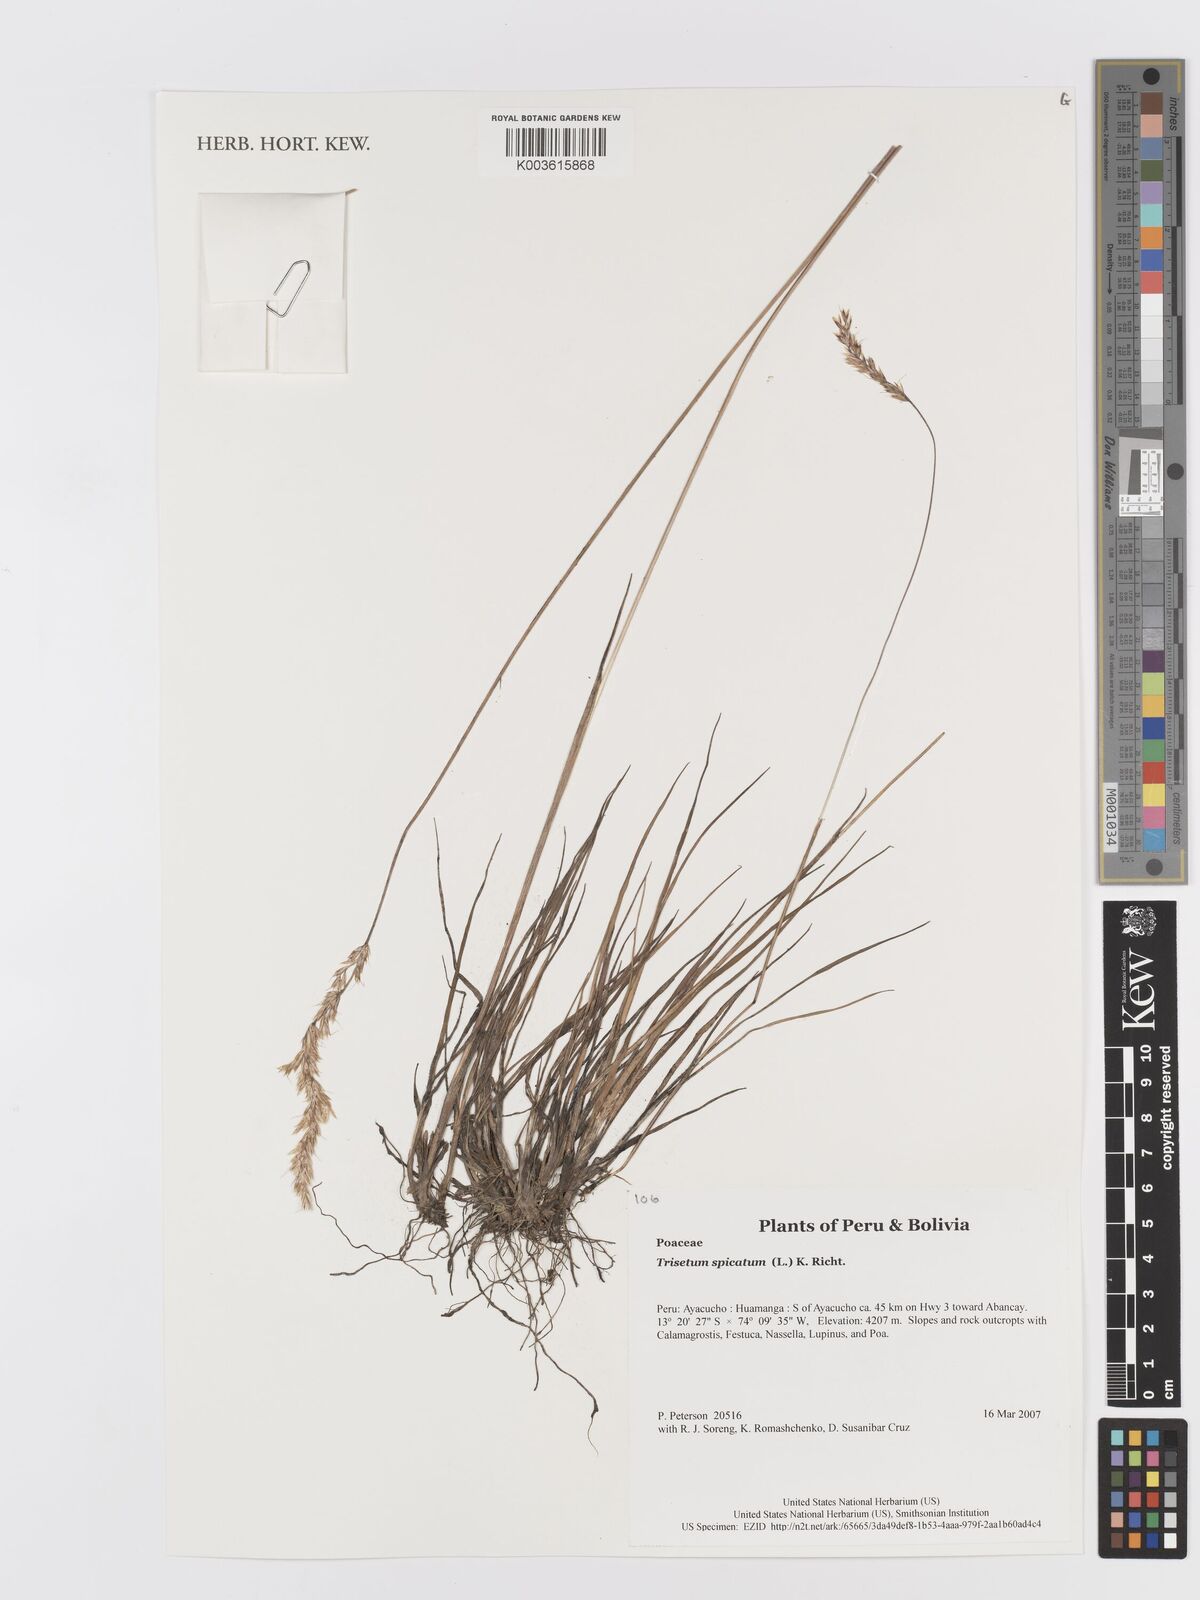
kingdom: Plantae
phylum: Tracheophyta
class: Liliopsida
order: Poales
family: Poaceae
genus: Koeleria
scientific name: Koeleria spicata
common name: Mountain trisetum
